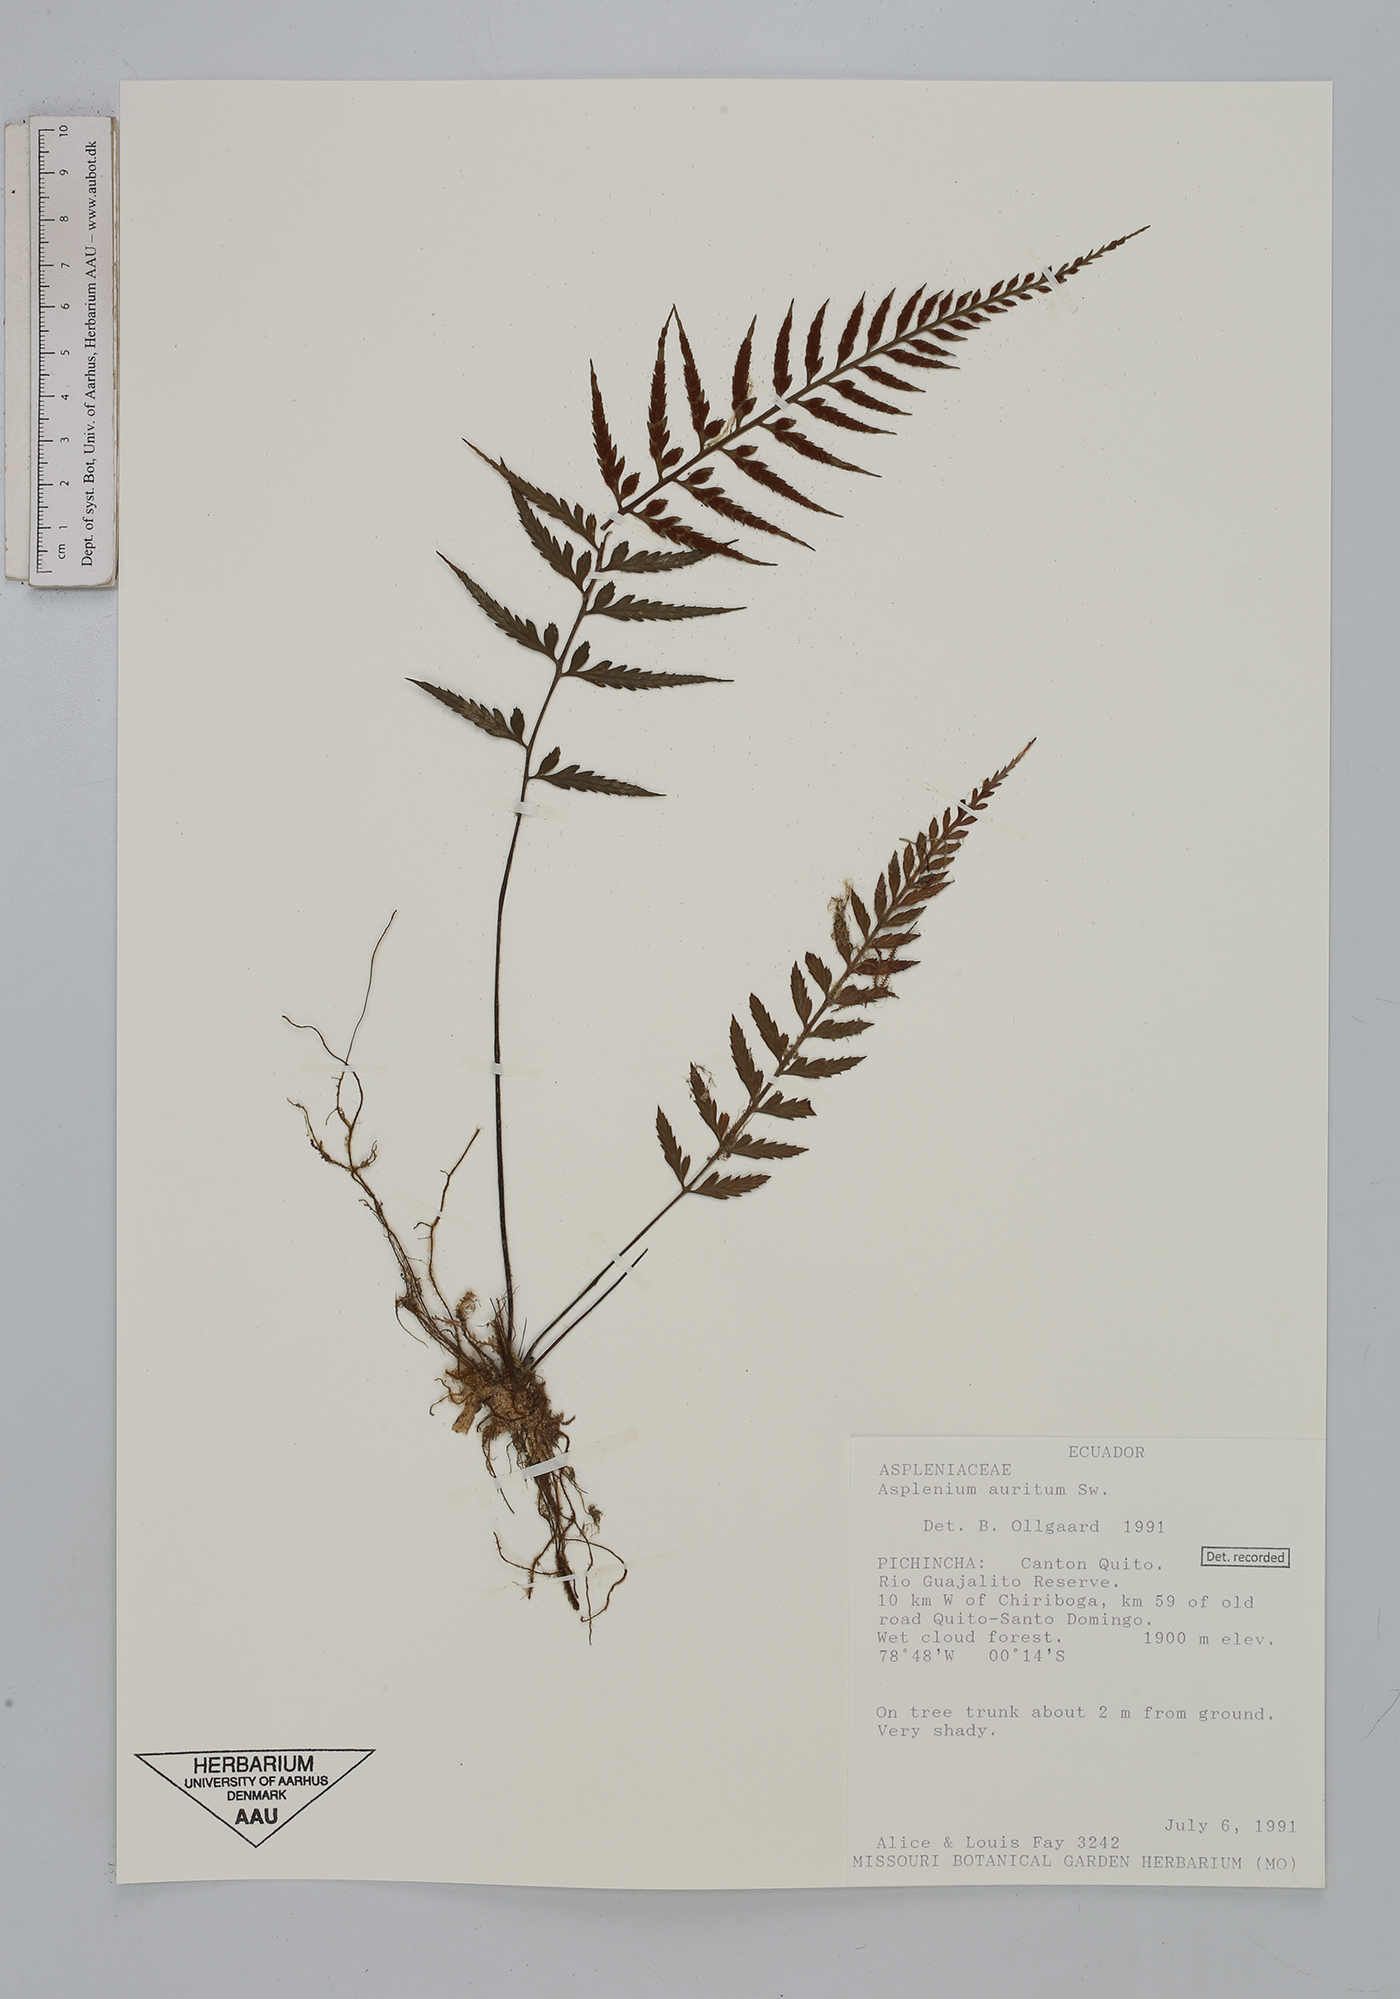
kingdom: Plantae
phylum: Tracheophyta
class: Polypodiopsida
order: Polypodiales
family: Aspleniaceae
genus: Asplenium
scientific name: Asplenium auritum
